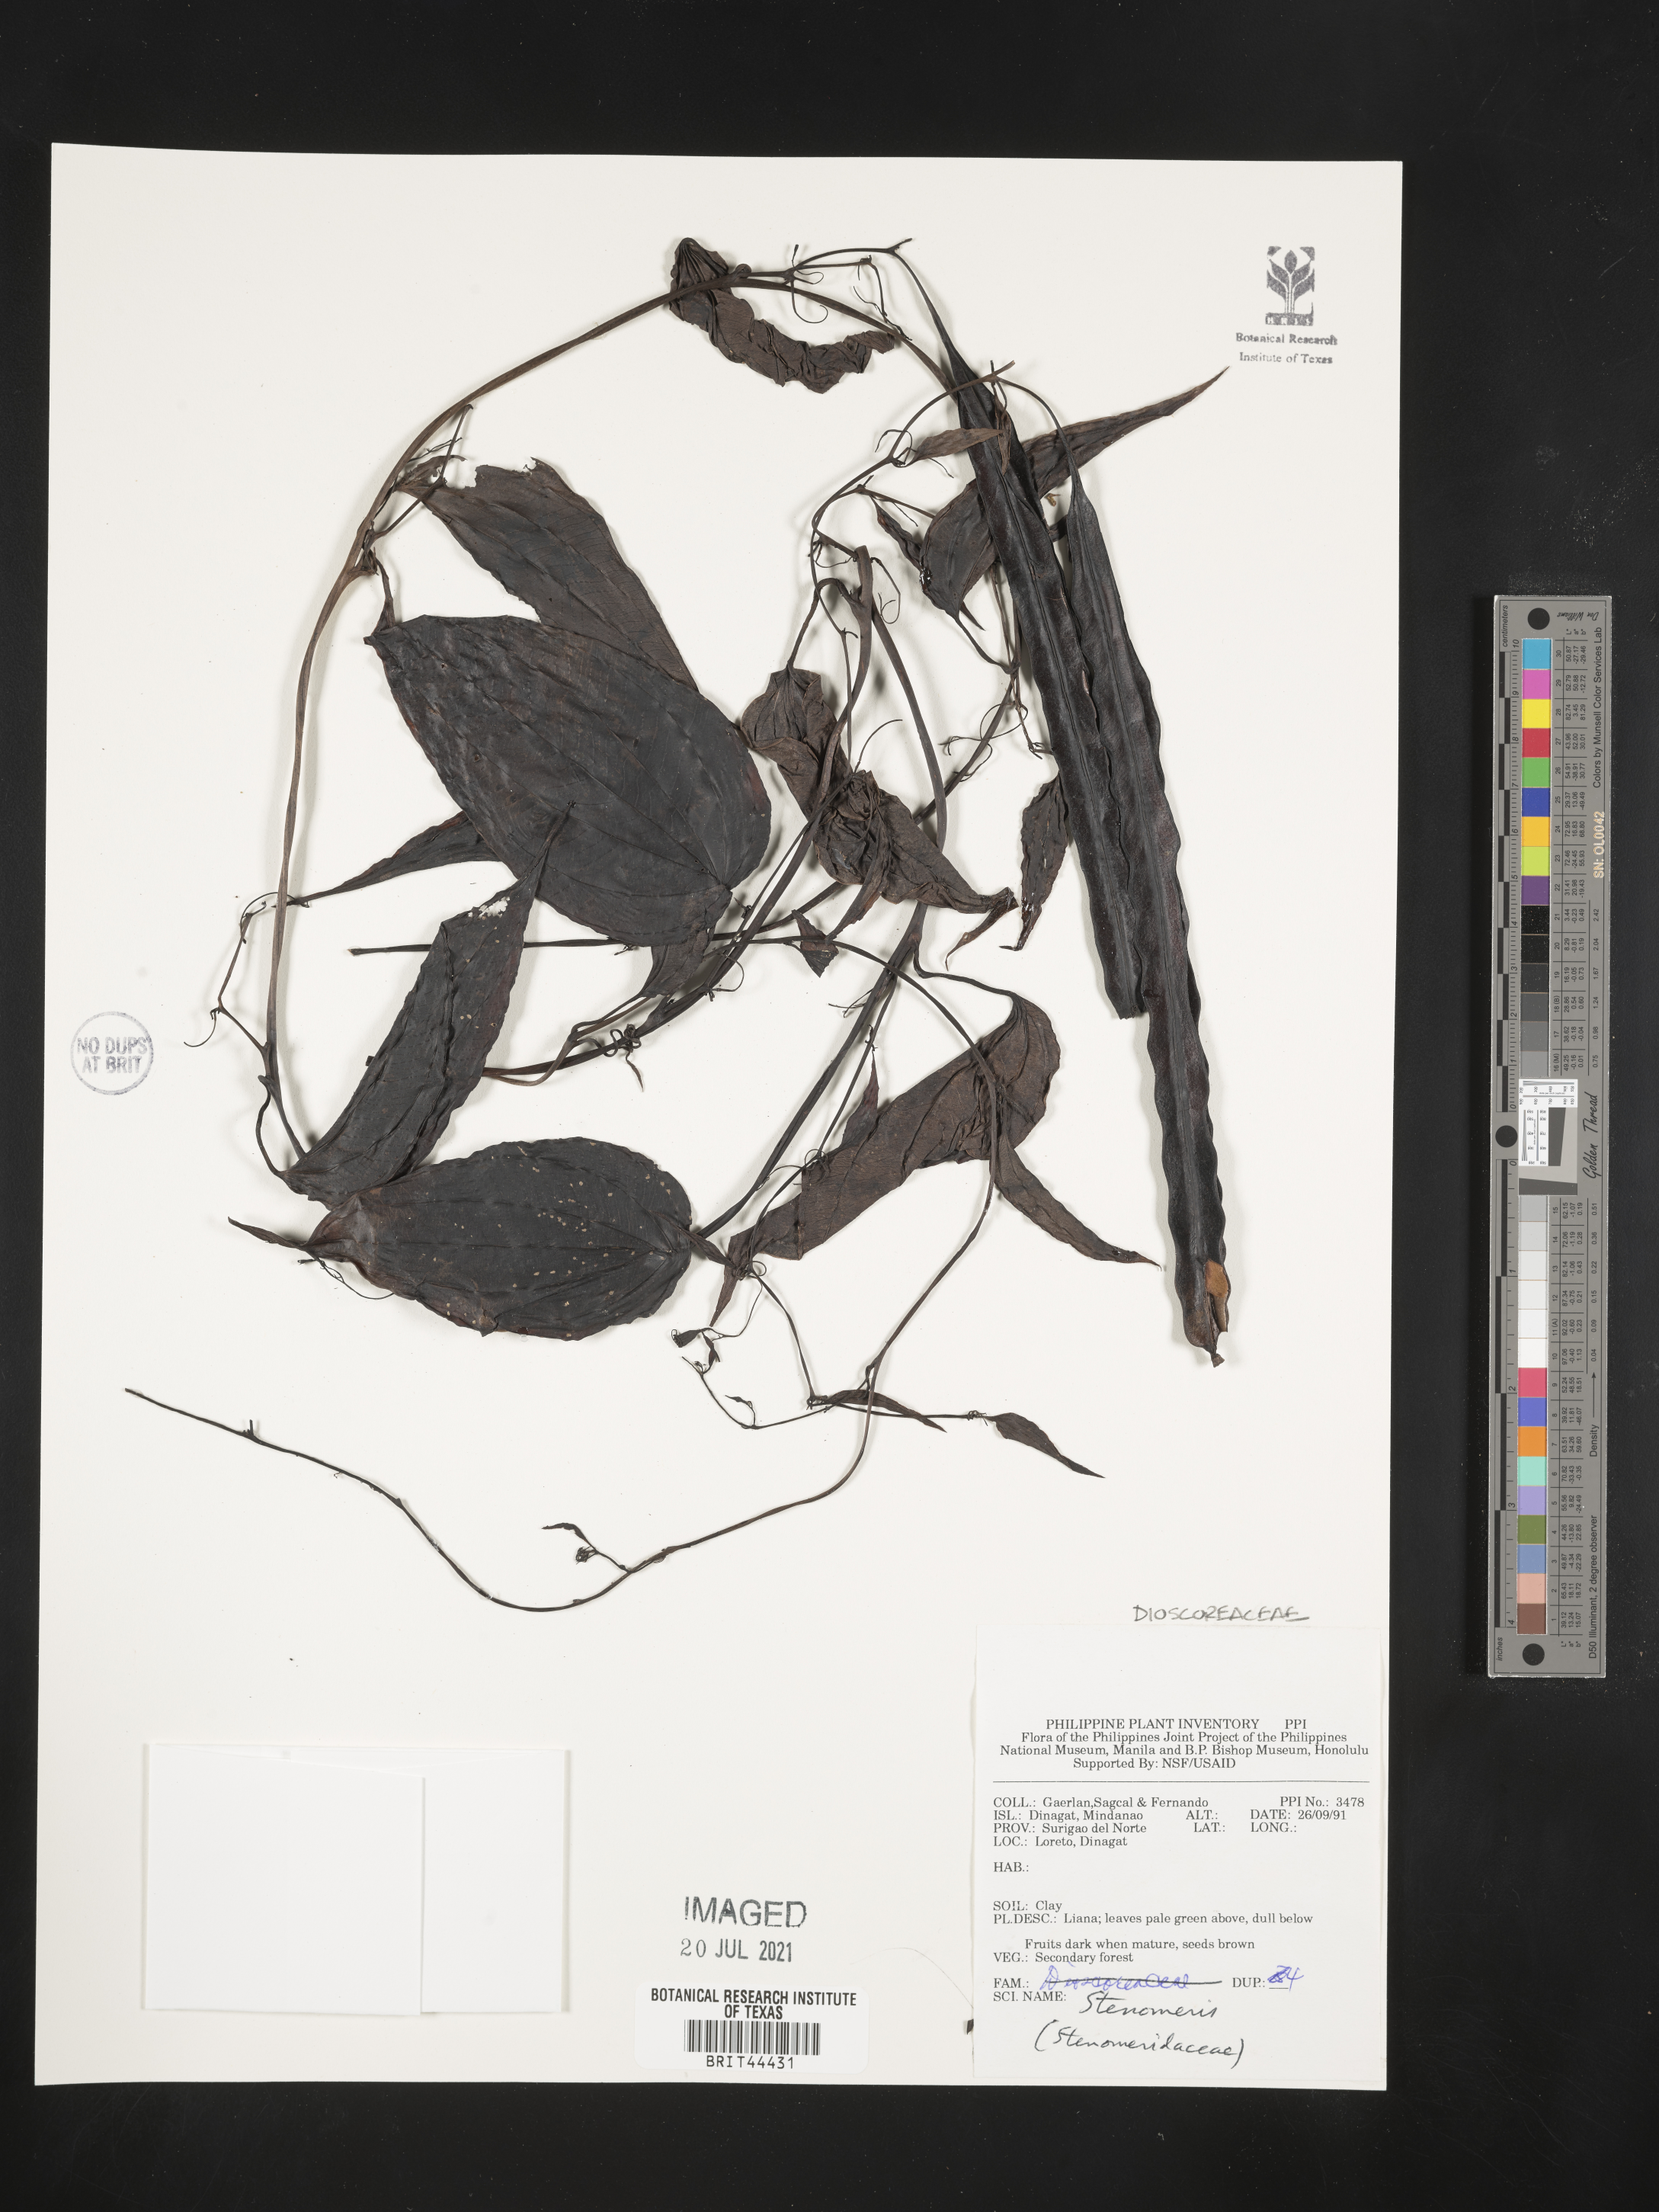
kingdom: Plantae
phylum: Tracheophyta
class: Liliopsida
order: Dioscoreales
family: Dioscoreaceae
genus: Stenomeris
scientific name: Stenomeris
